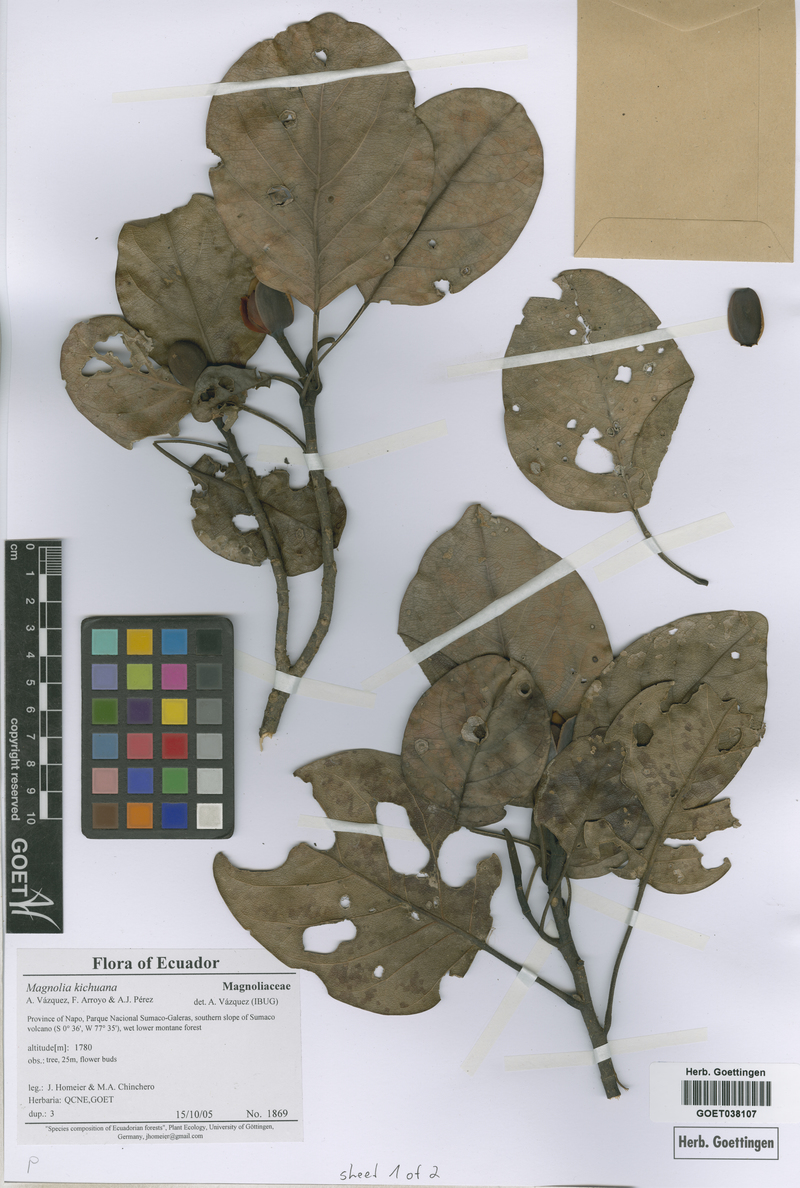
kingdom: Plantae
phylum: Tracheophyta
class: Magnoliopsida
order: Magnoliales
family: Magnoliaceae
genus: Magnolia
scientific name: Magnolia kichuana
